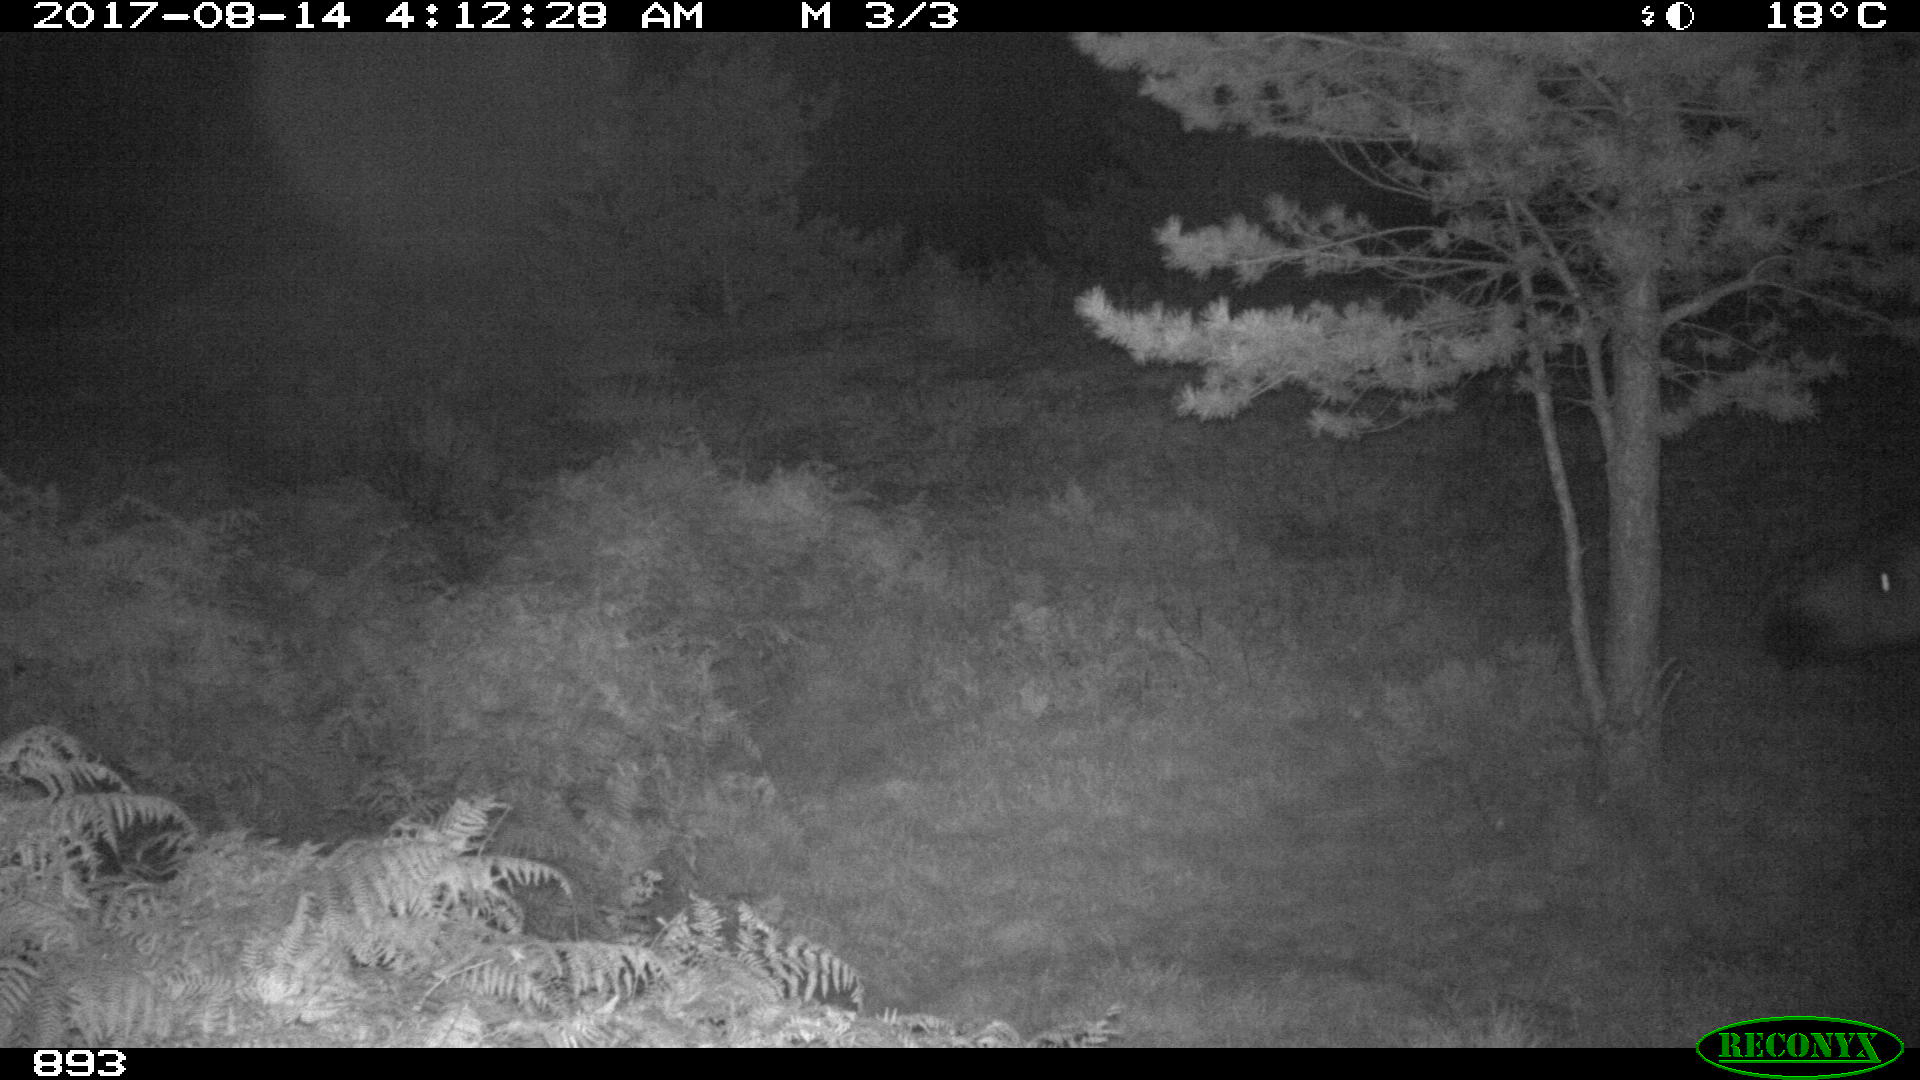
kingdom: Animalia
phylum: Chordata
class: Mammalia
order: Perissodactyla
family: Equidae
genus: Equus
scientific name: Equus caballus
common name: Horse
